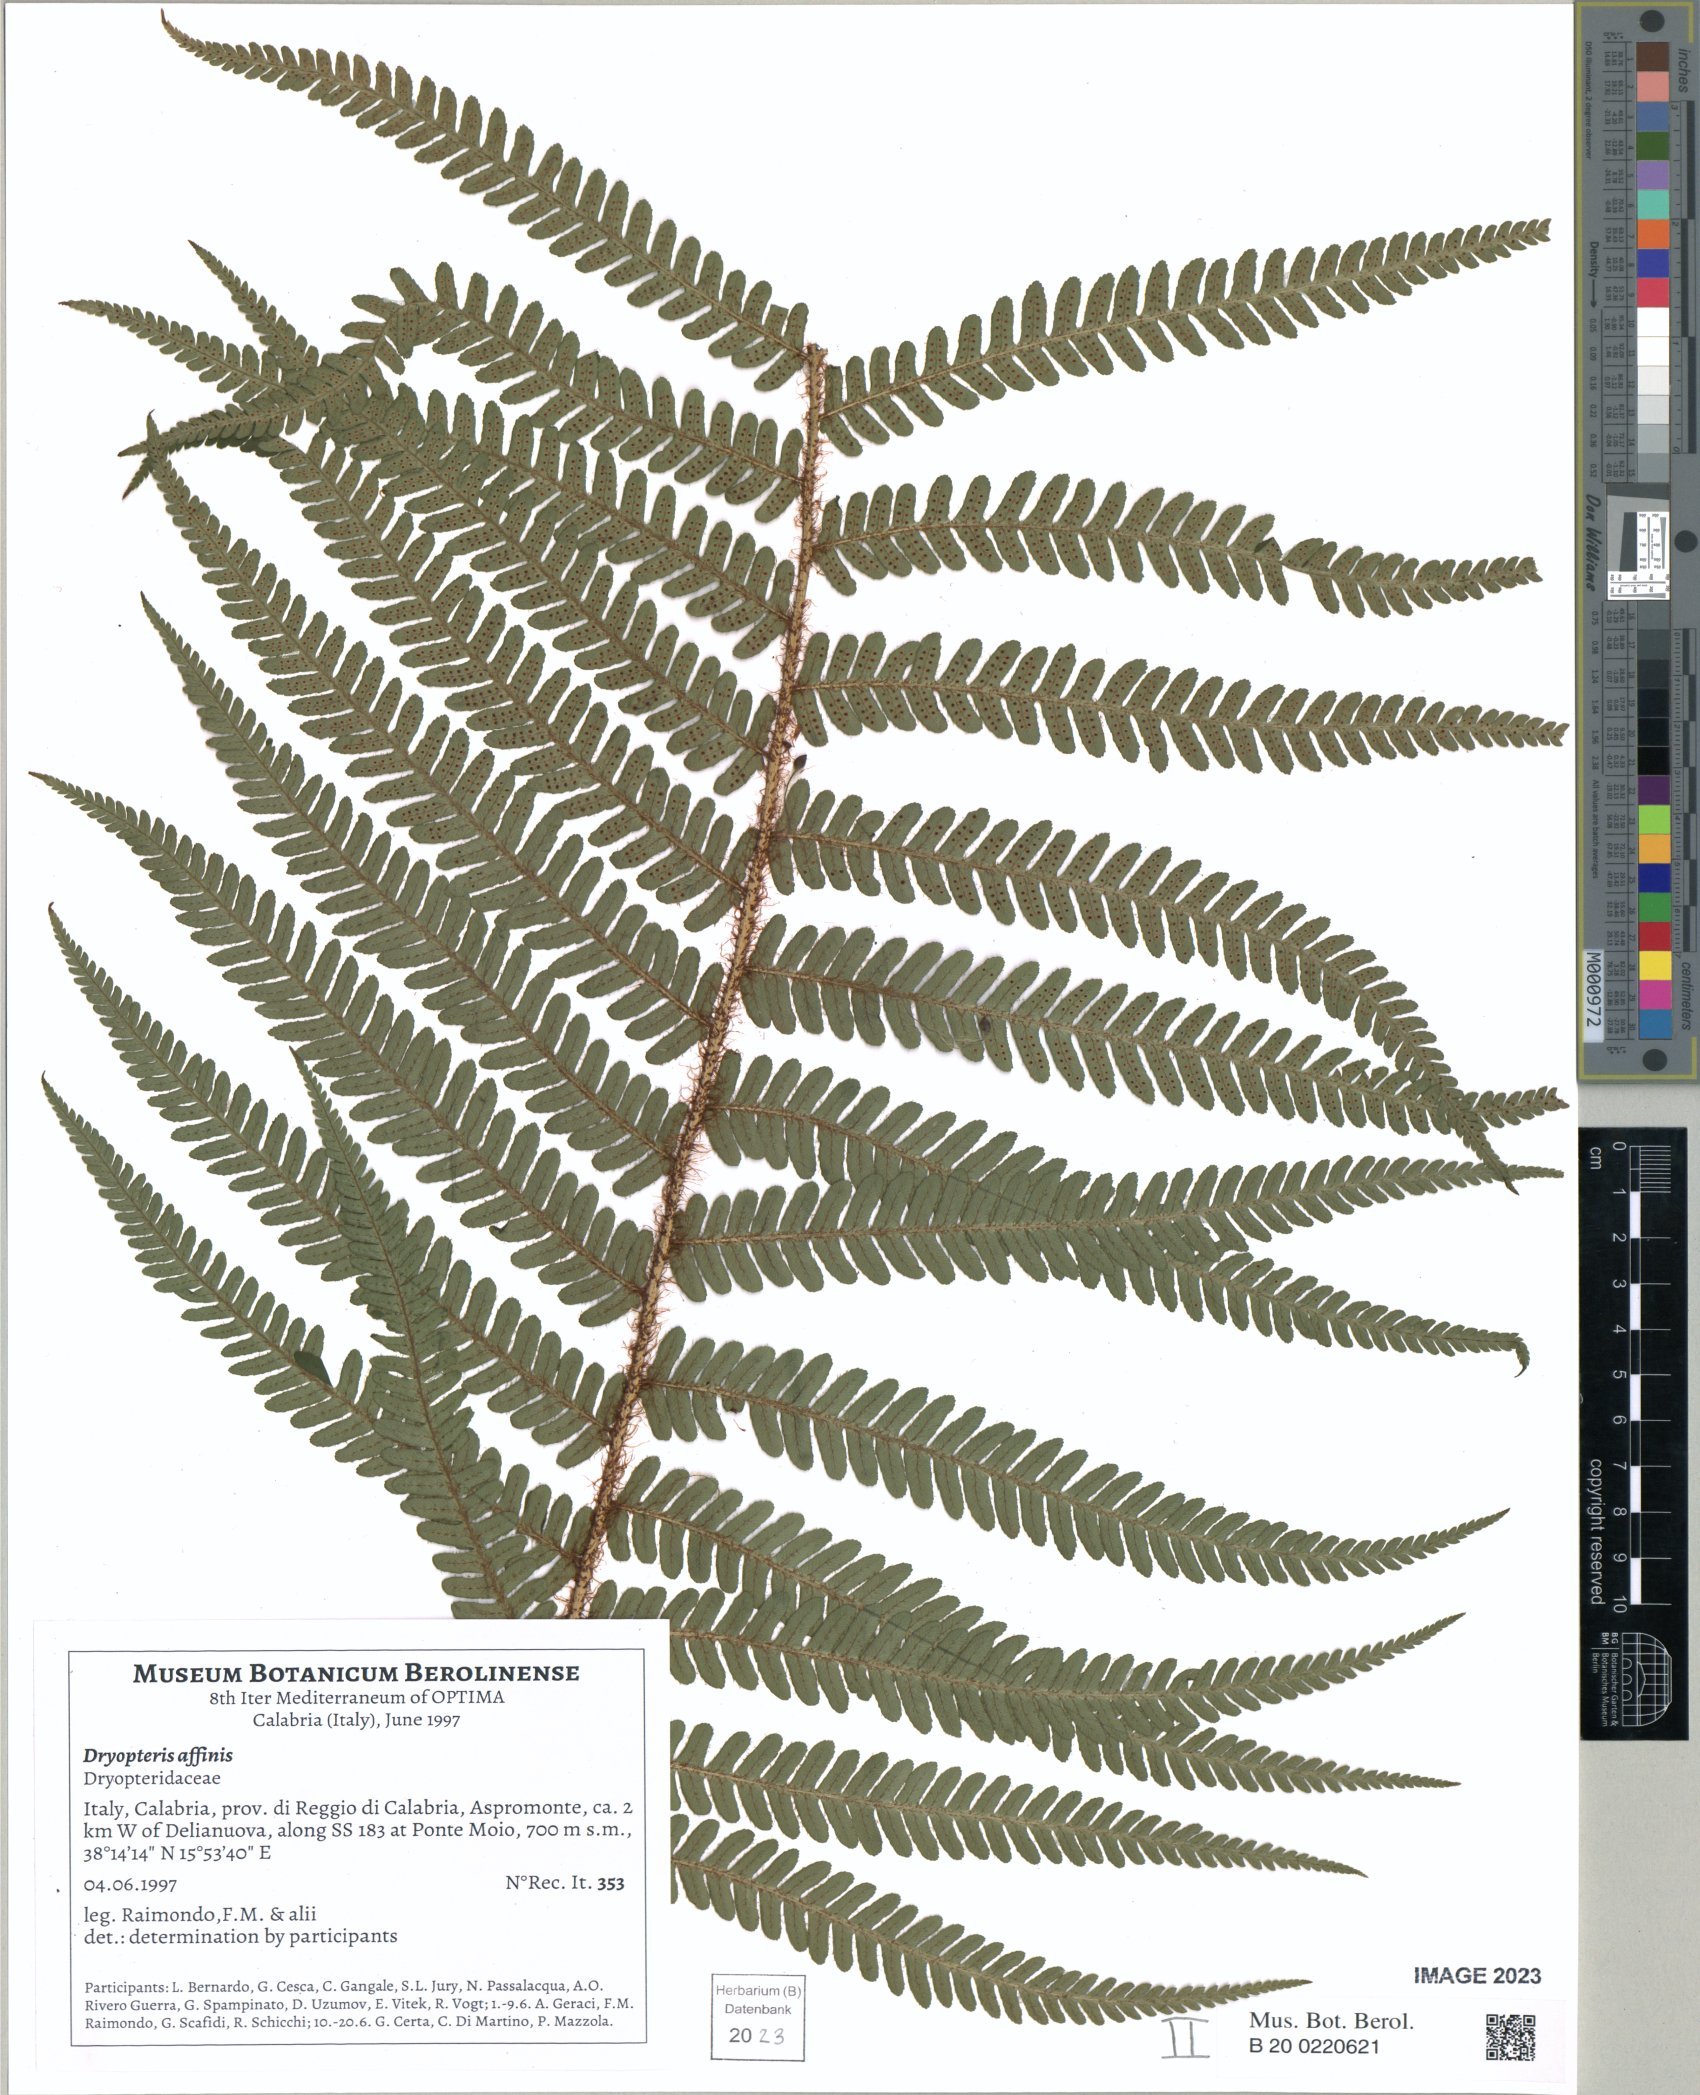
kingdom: Plantae
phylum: Tracheophyta
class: Polypodiopsida
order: Polypodiales
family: Dryopteridaceae
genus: Dryopteris
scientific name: Dryopteris affinis
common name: Scaly male fern
